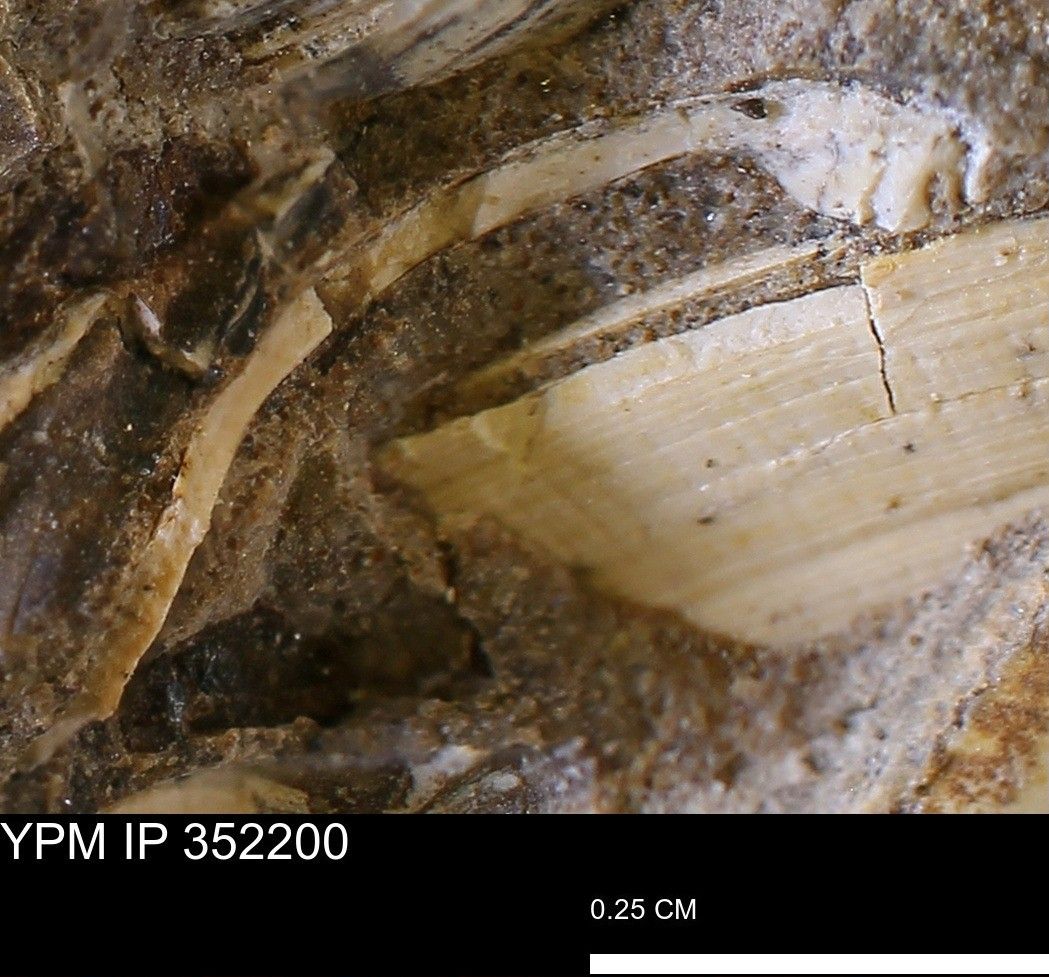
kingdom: Animalia
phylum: Mollusca
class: Bivalvia
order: Arcida
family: Limopsidae
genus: Limopsis
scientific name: Limopsis
